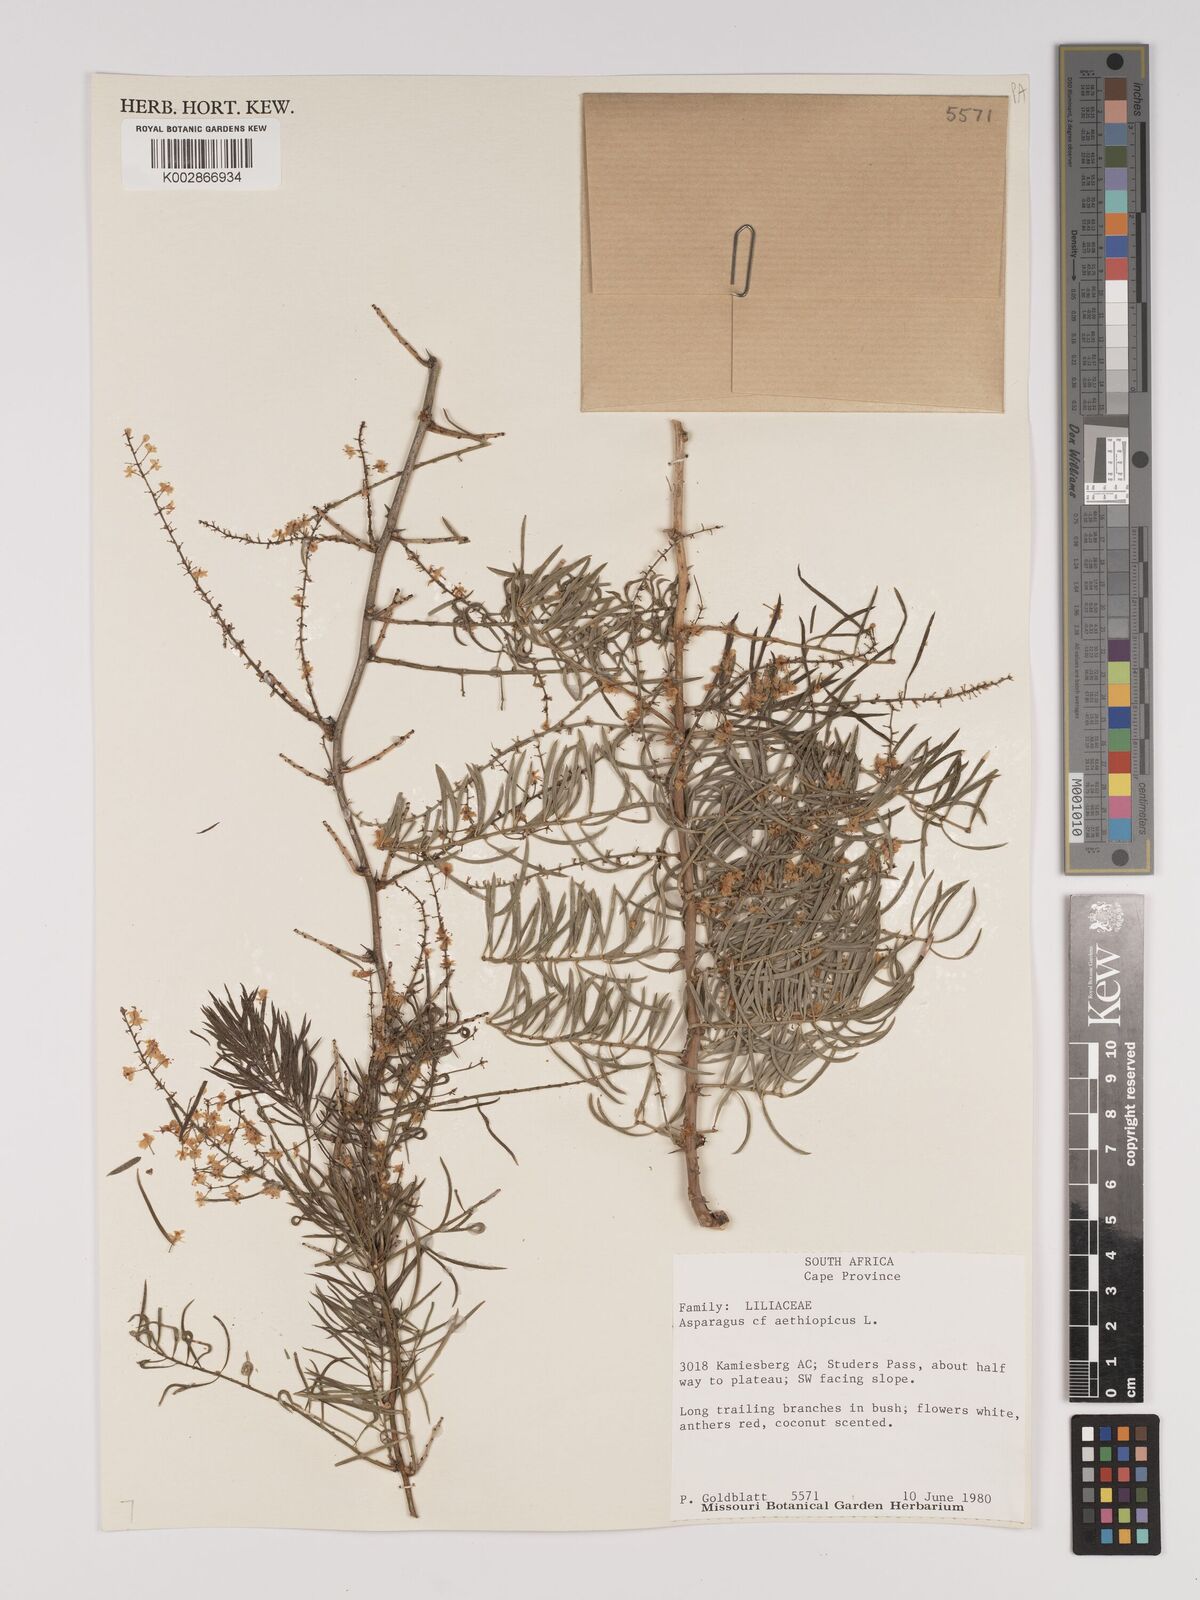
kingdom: Plantae
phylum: Tracheophyta
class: Liliopsida
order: Asparagales
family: Asparagaceae
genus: Asparagus
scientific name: Asparagus falcatus
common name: Asparagus
